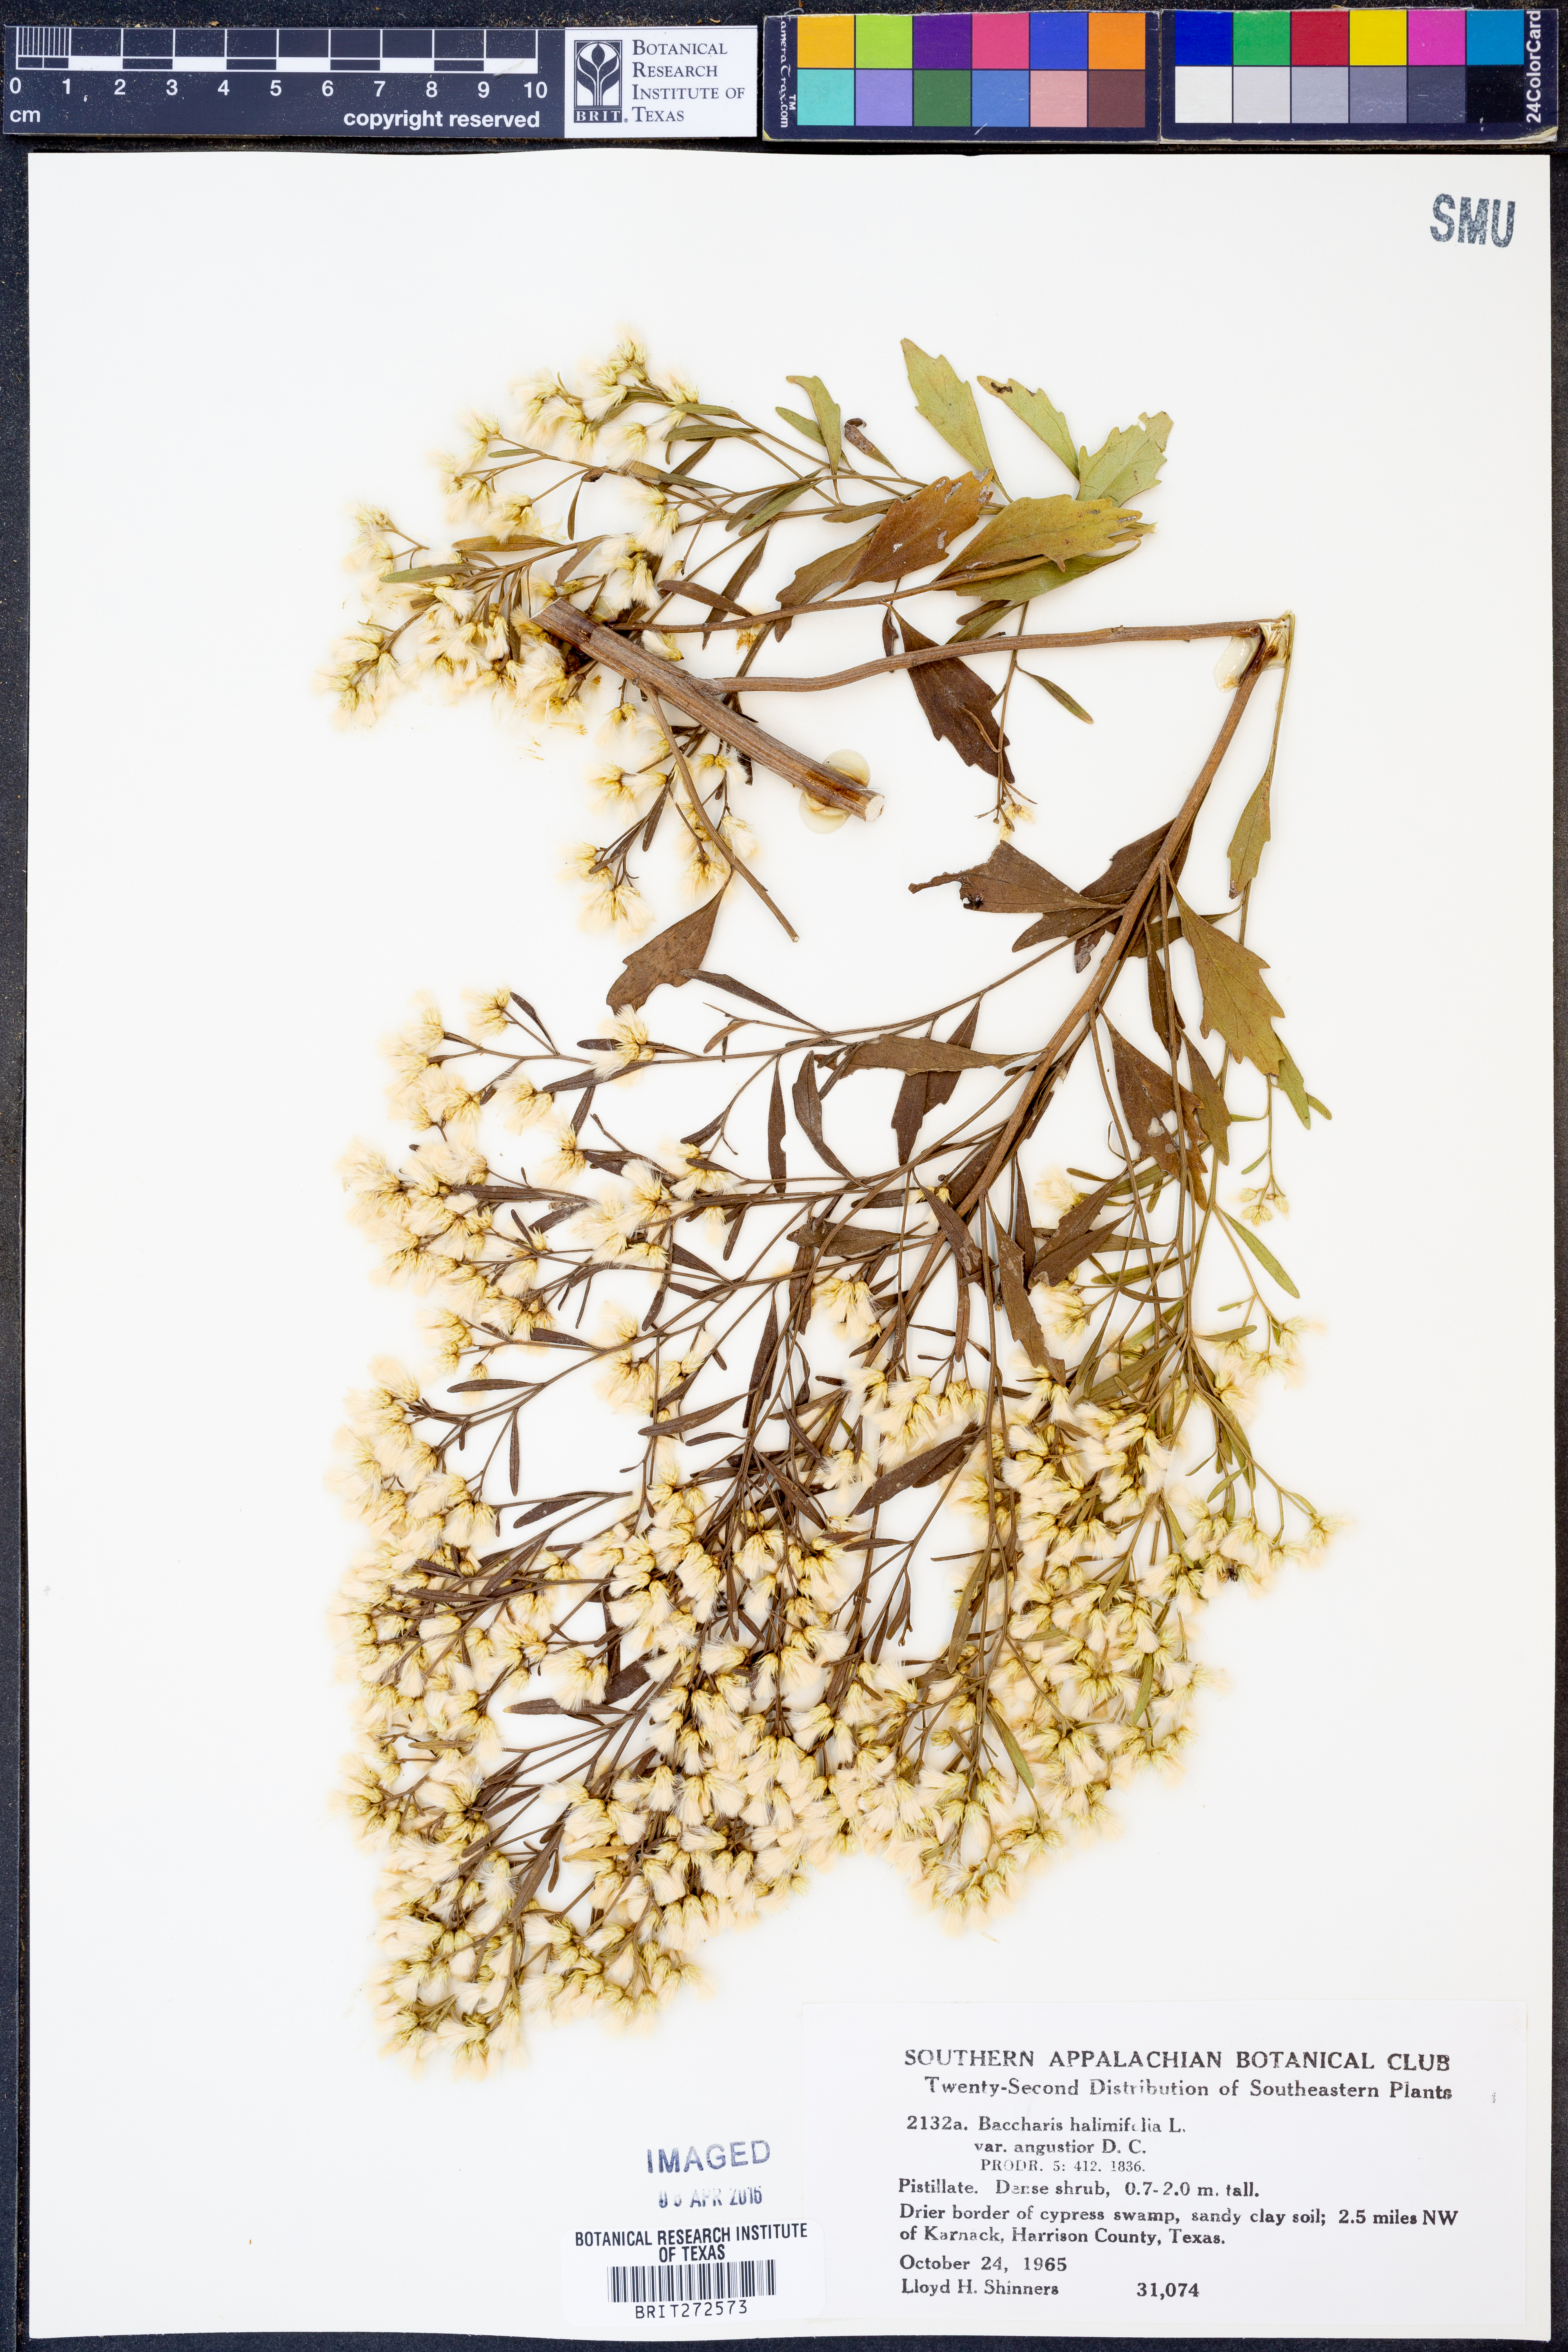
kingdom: Plantae
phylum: Tracheophyta
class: Magnoliopsida
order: Asterales
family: Asteraceae
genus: Baccharis
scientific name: Baccharis halimifolia
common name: Eastern baccharis
